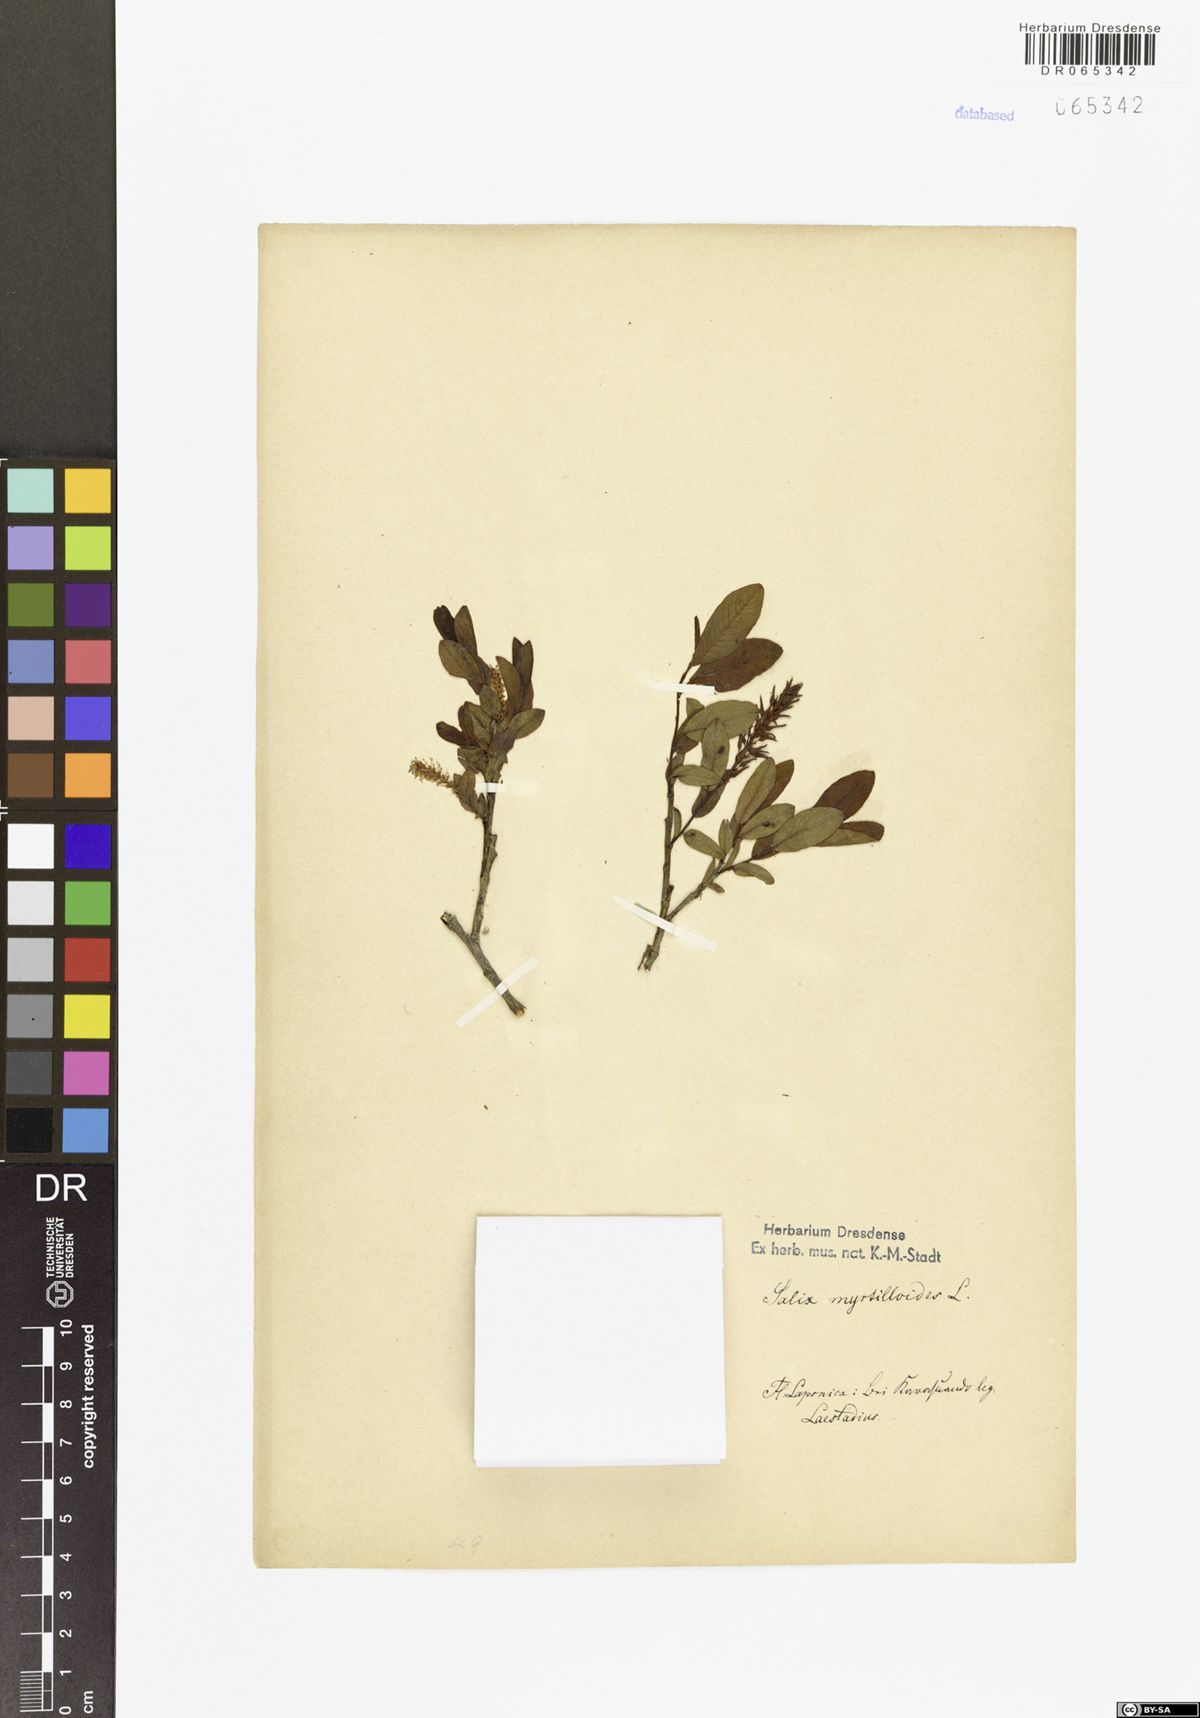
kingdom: Plantae
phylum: Tracheophyta
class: Magnoliopsida
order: Malpighiales
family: Salicaceae
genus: Salix
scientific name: Salix myrtilloides
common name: Myrtle-leaved willow
